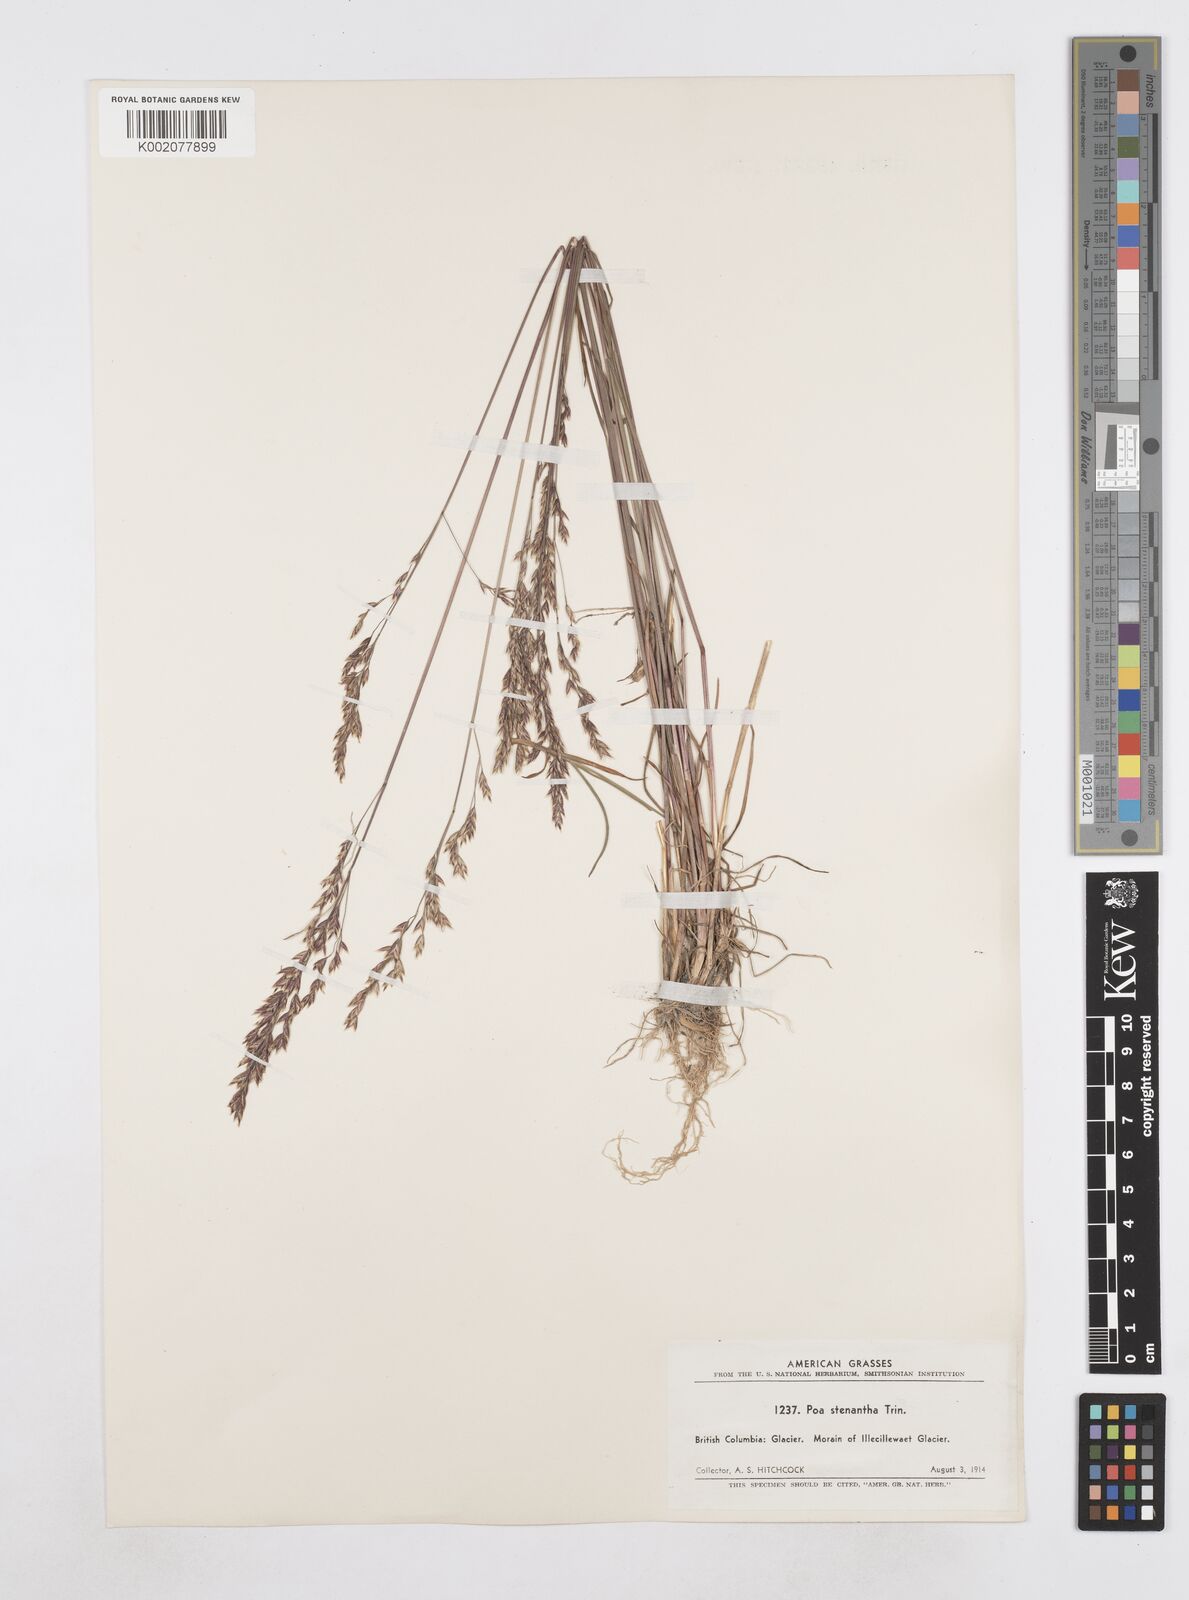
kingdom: Plantae
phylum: Tracheophyta
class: Liliopsida
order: Poales
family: Poaceae
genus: Poa
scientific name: Poa stenantha
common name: Narrow-flowered bluegrass
